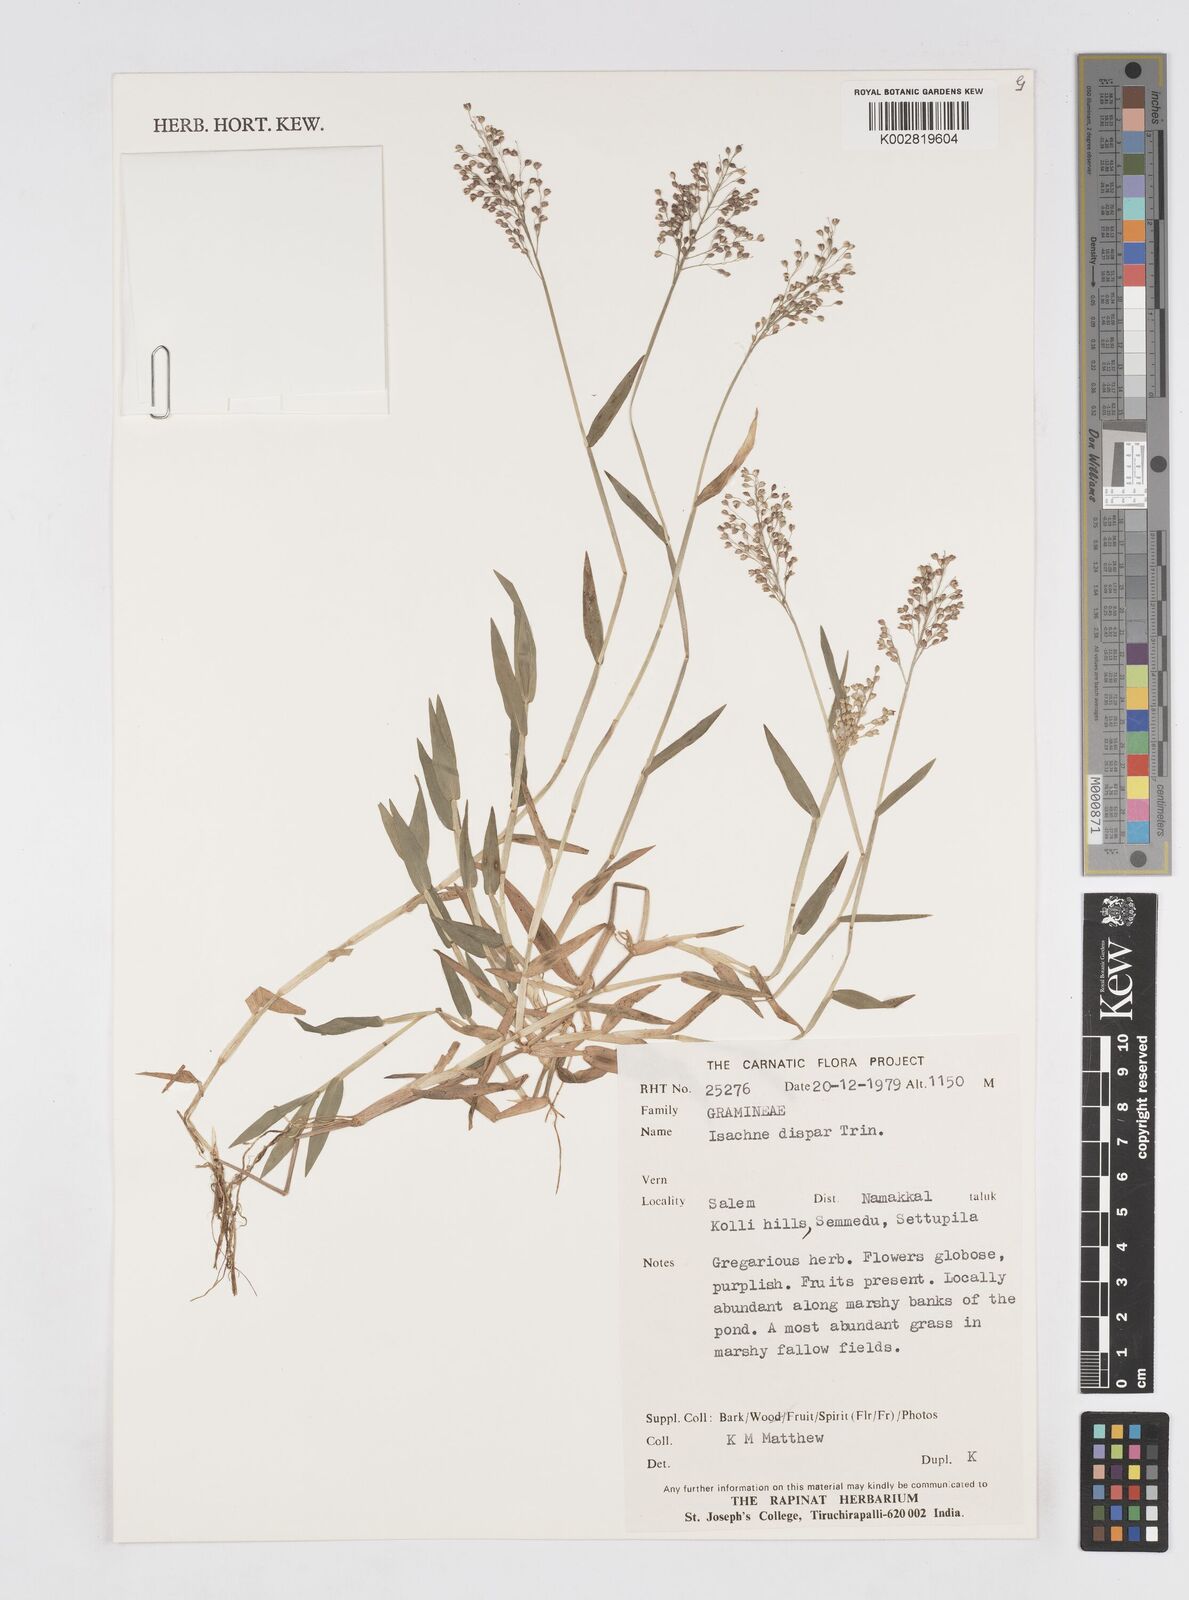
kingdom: Plantae
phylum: Tracheophyta
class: Liliopsida
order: Poales
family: Poaceae
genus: Isachne
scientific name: Isachne globosa
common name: Swamp millet
